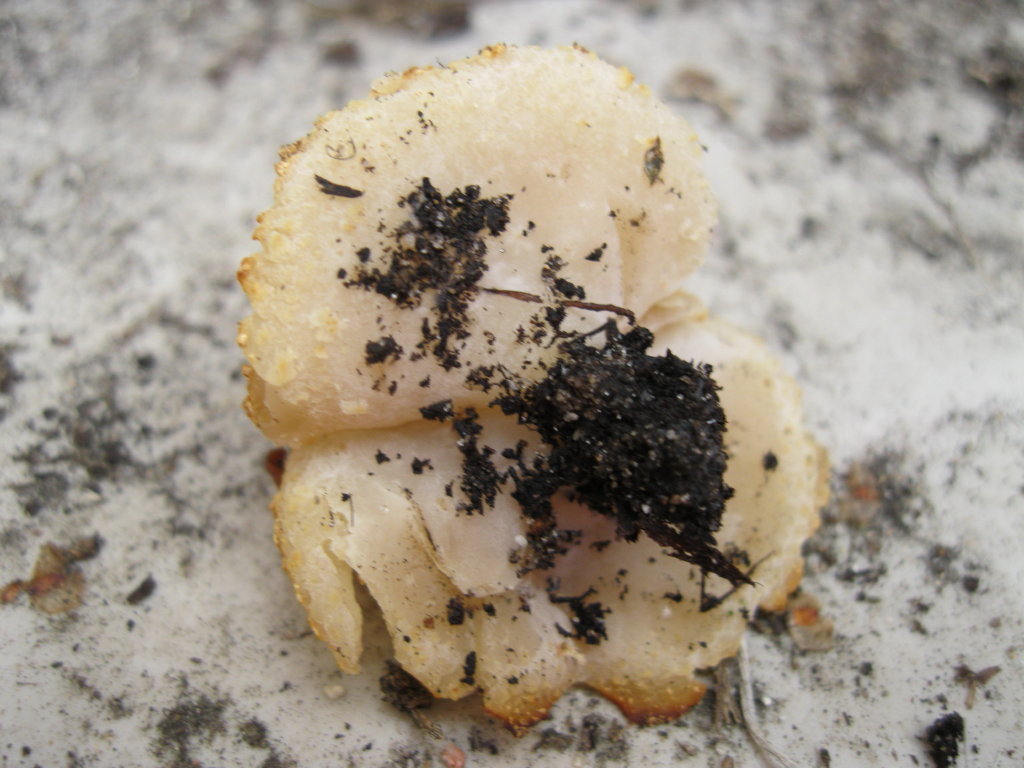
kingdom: Fungi
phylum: Ascomycota
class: Pezizomycetes
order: Pezizales
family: Pezizaceae
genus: Peziza
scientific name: Peziza
